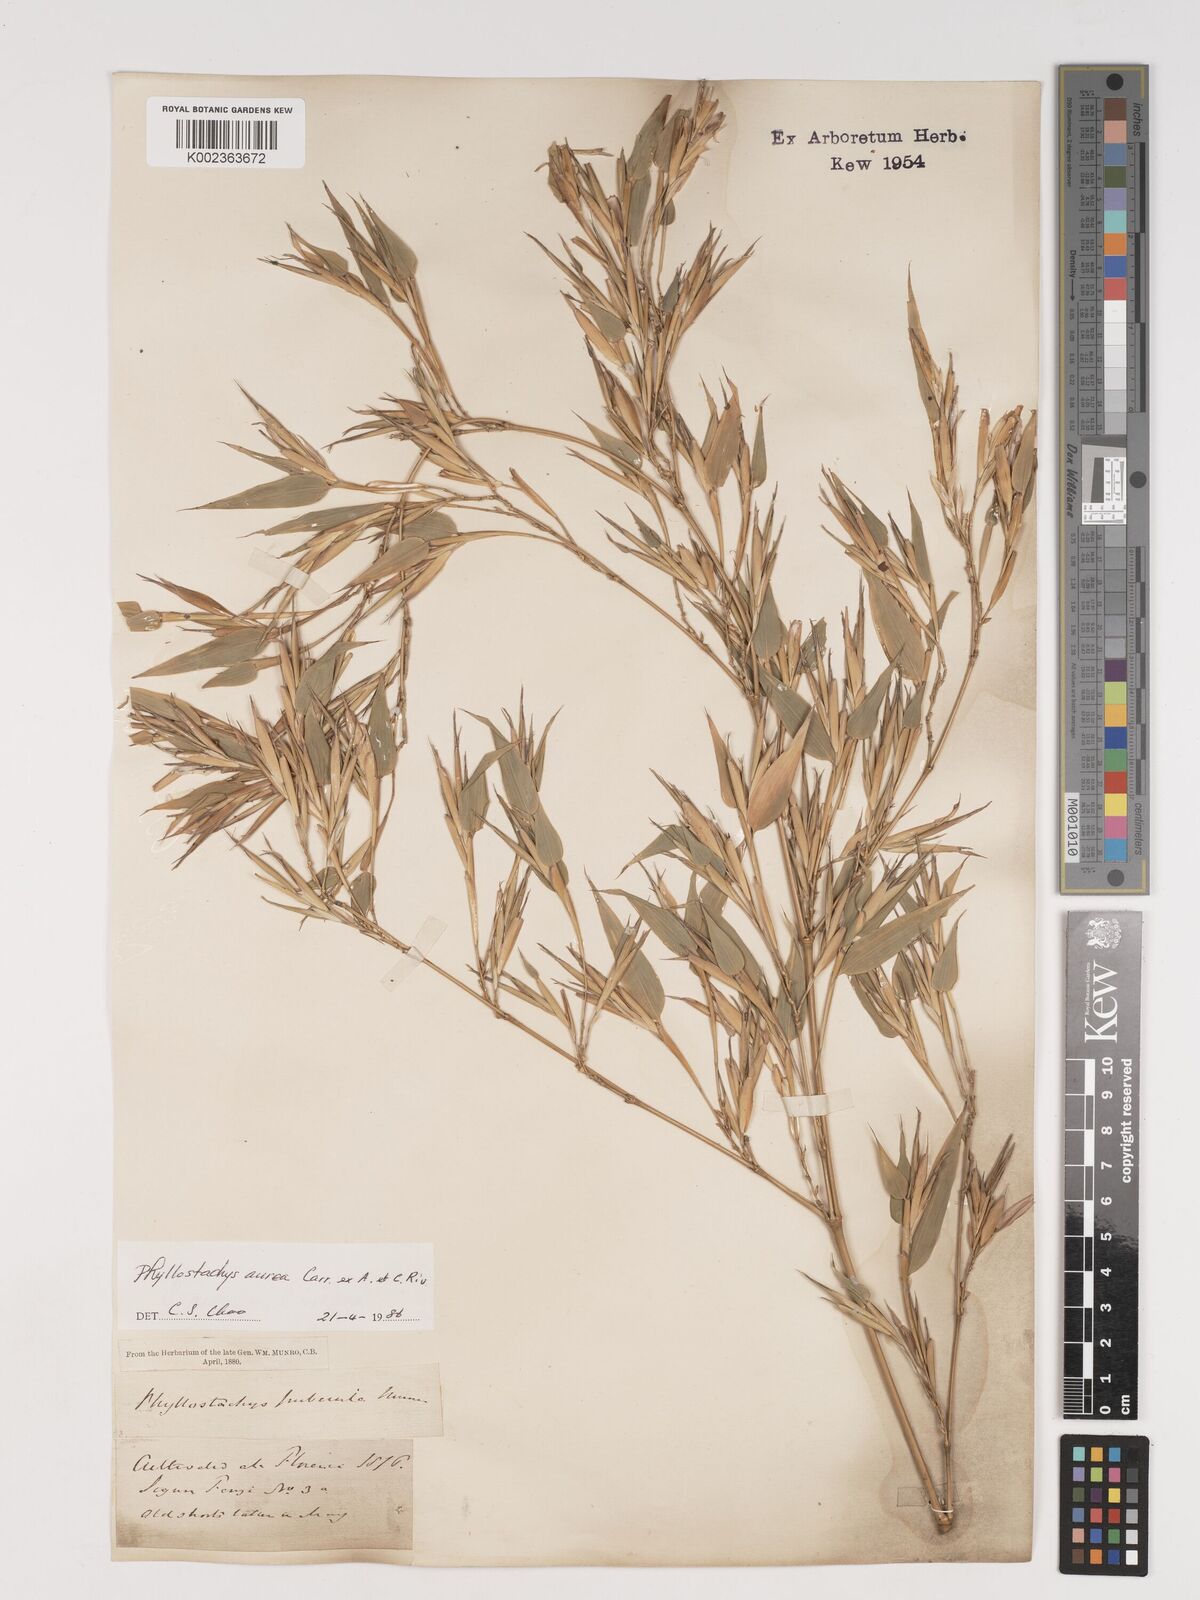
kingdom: Plantae
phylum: Tracheophyta
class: Liliopsida
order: Poales
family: Poaceae
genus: Phyllostachys
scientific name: Phyllostachys aurea
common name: Golden bamboo
